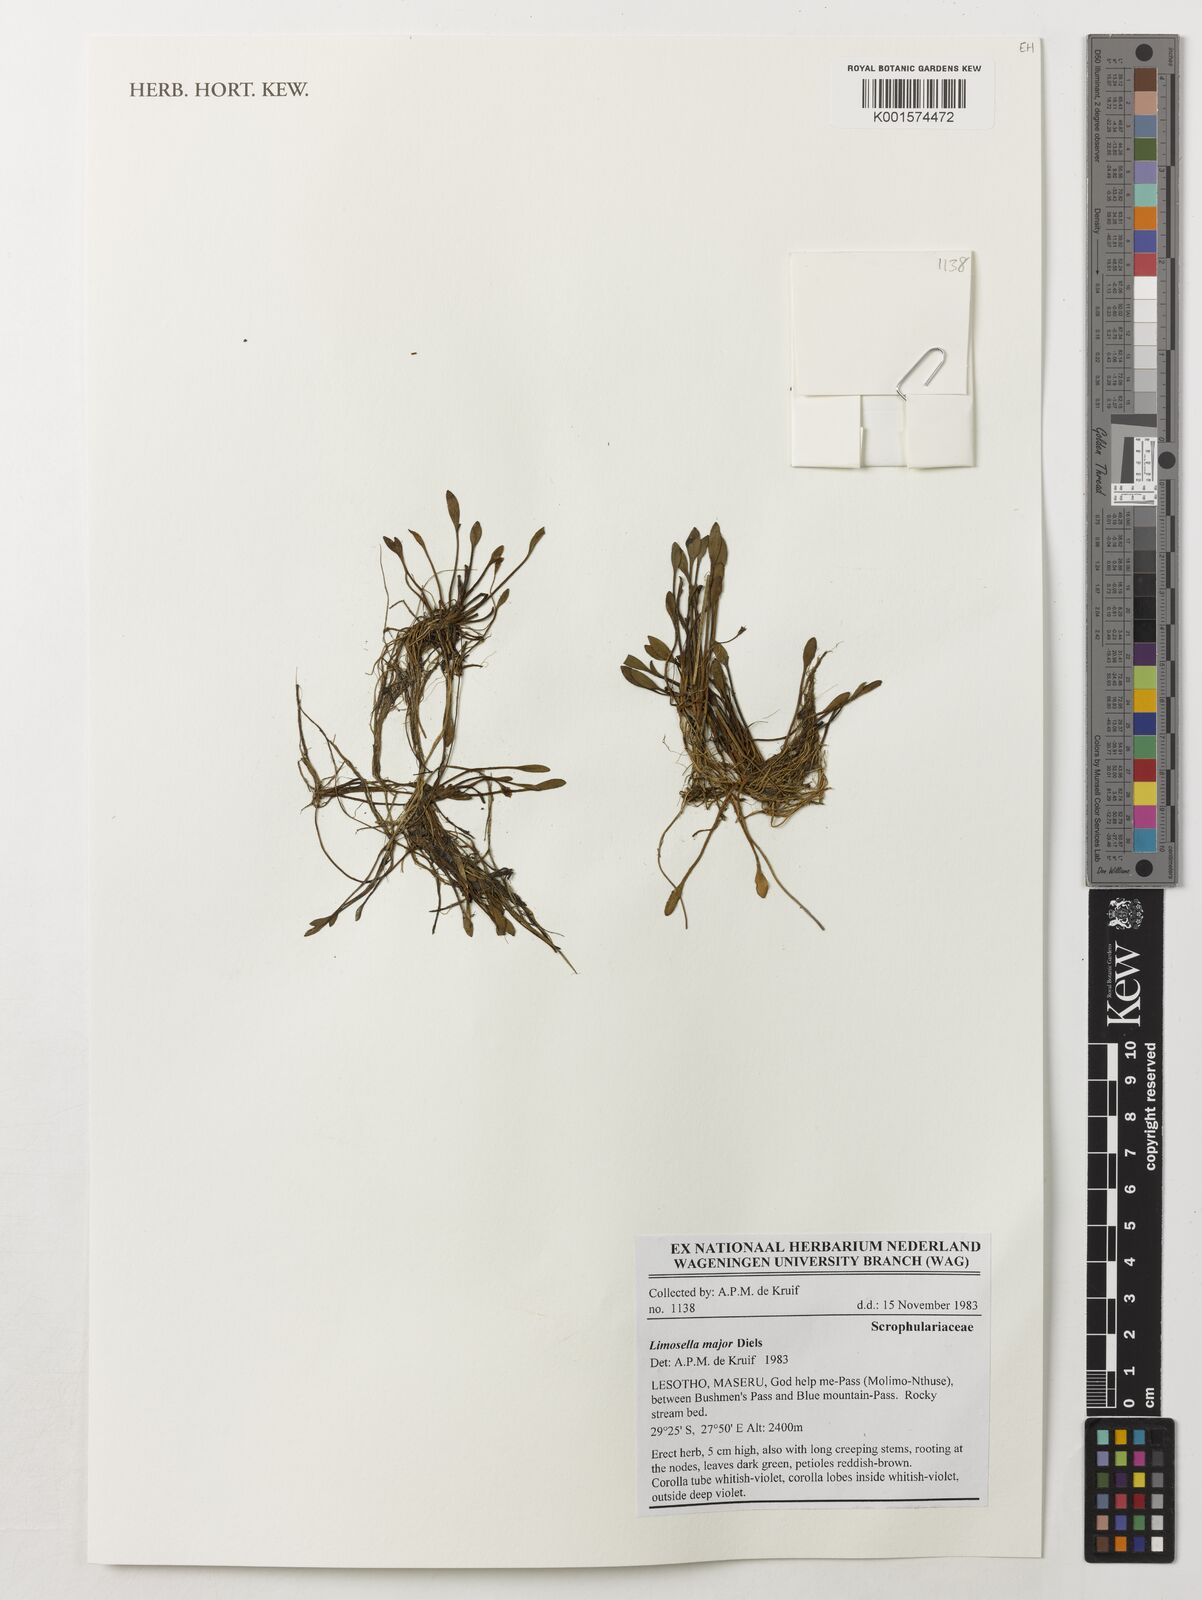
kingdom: Plantae
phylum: Tracheophyta
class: Magnoliopsida
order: Lamiales
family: Scrophulariaceae
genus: Limosella
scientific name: Limosella major
